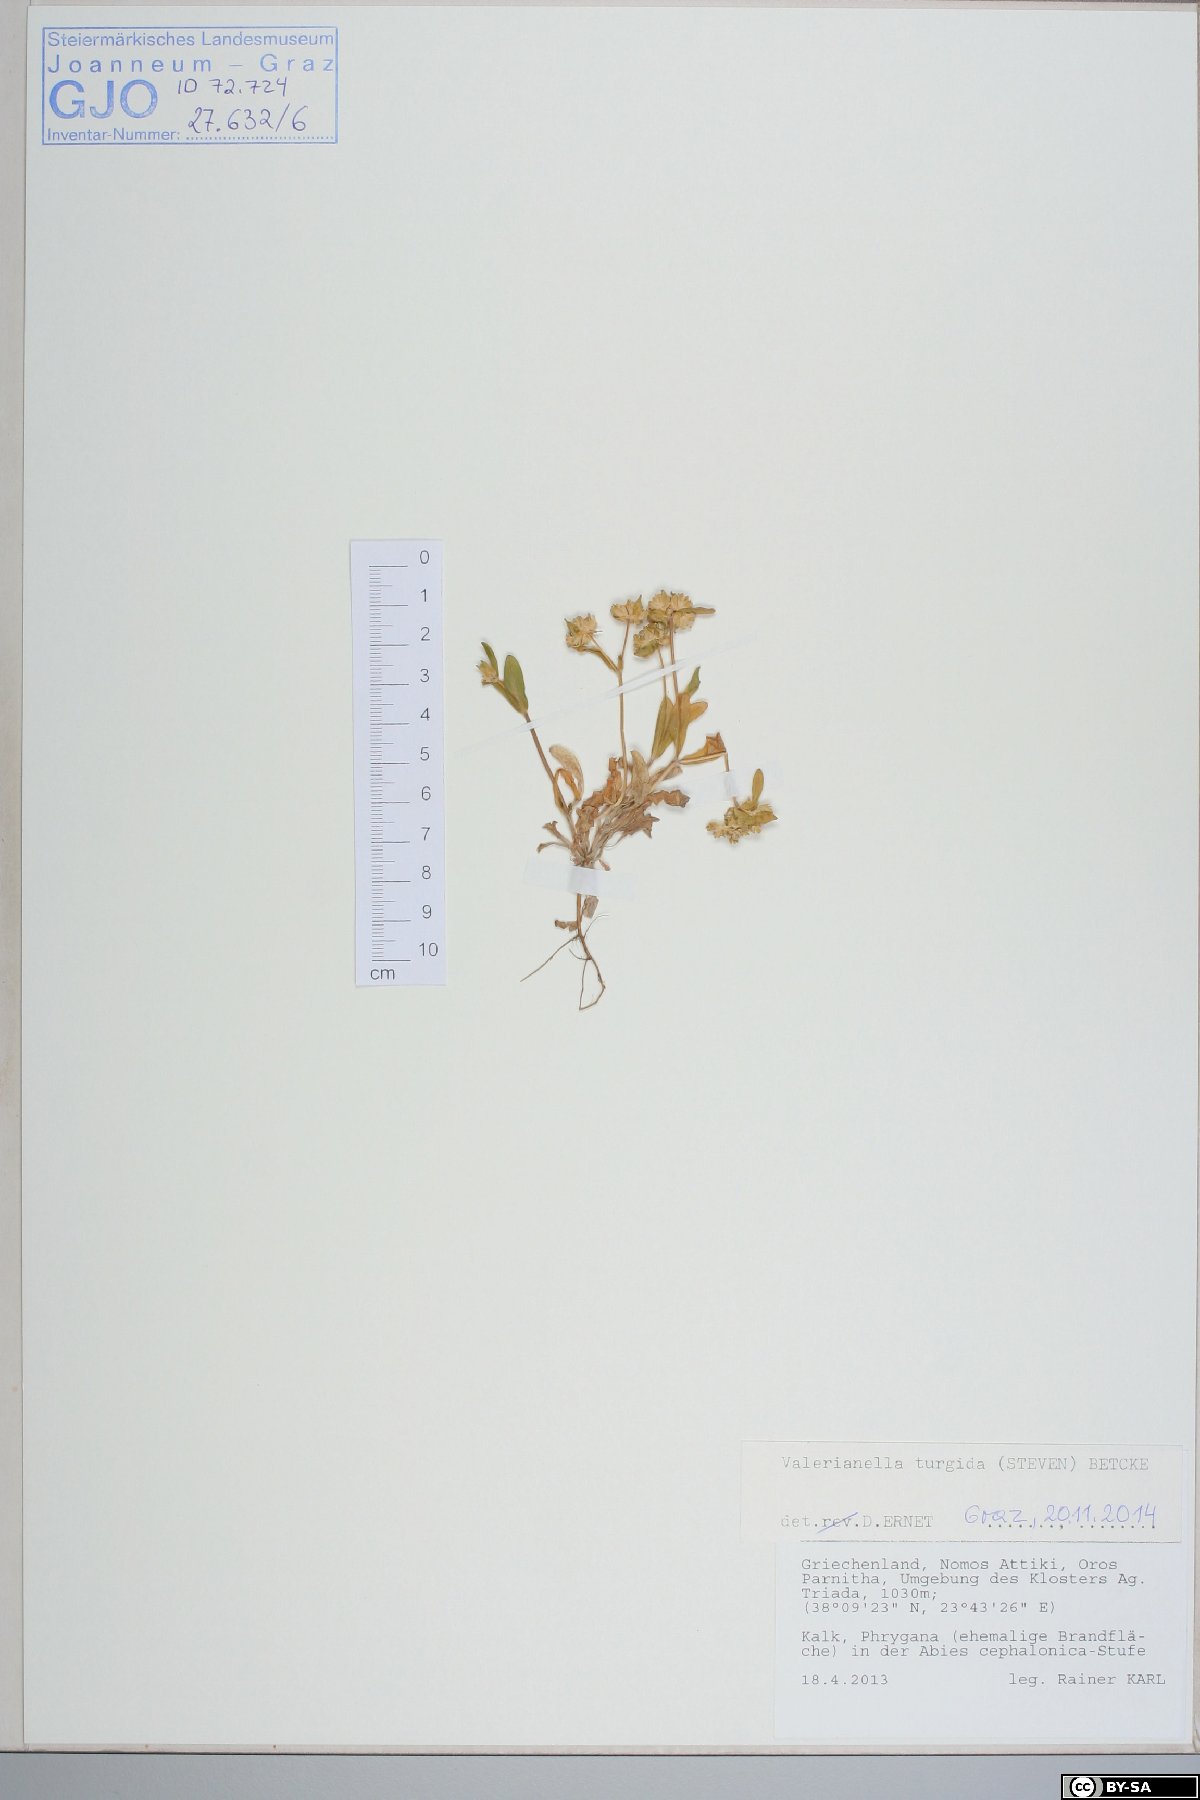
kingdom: Plantae
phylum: Tracheophyta
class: Magnoliopsida
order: Dipsacales
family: Caprifoliaceae
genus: Valerianella
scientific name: Valerianella turgida
